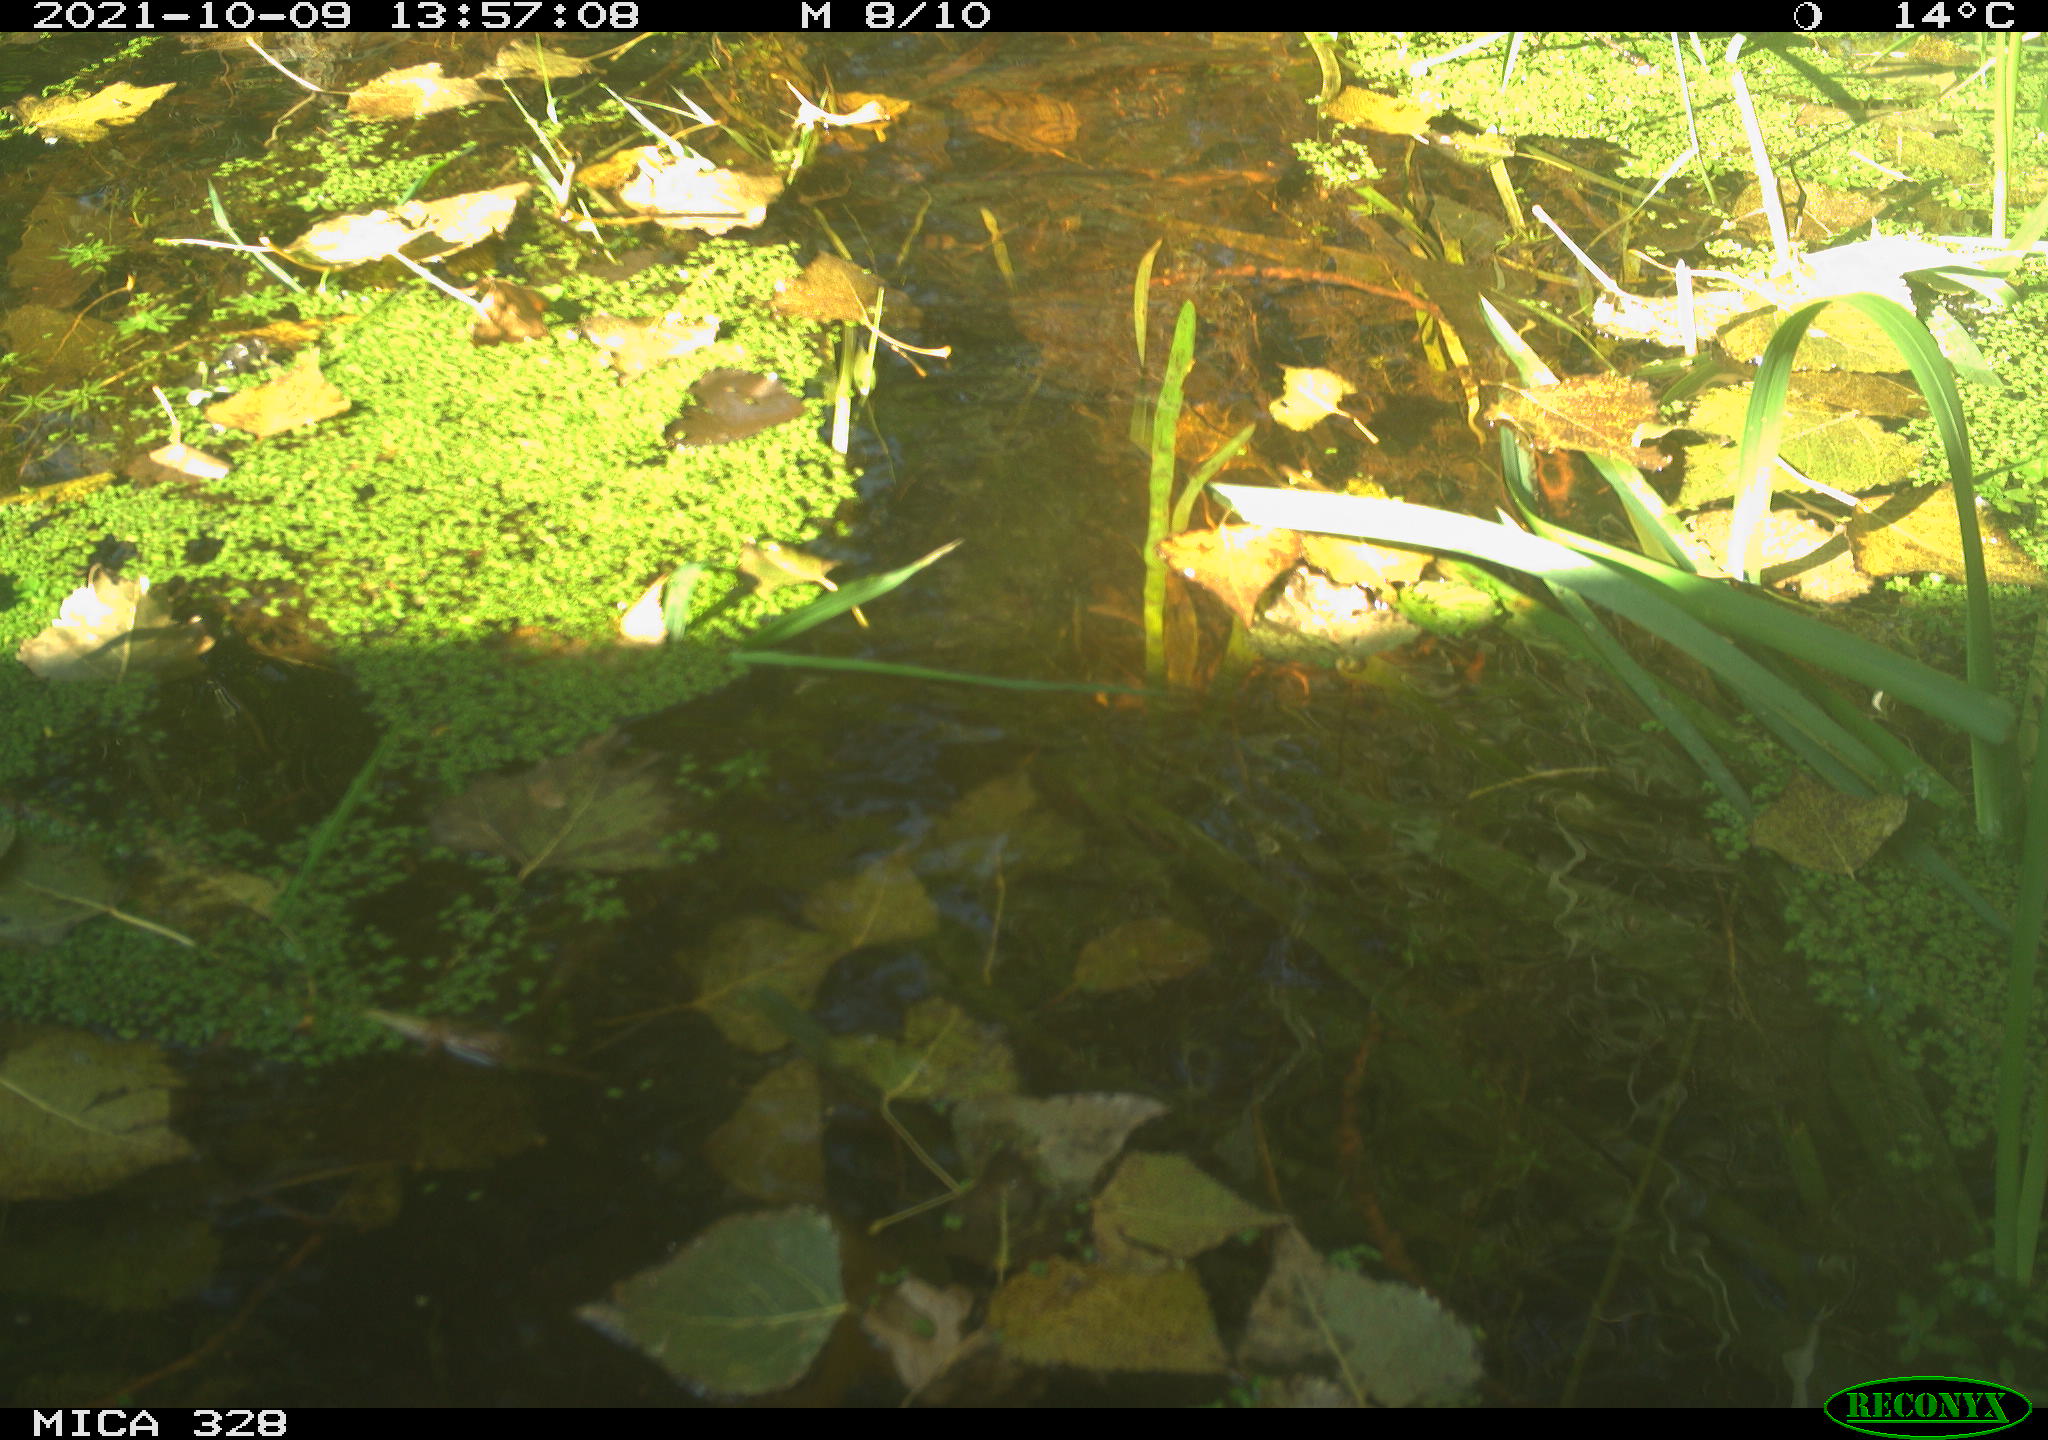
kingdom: Animalia
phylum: Chordata
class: Mammalia
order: Rodentia
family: Cricetidae
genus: Ondatra
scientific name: Ondatra zibethicus
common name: Muskrat
